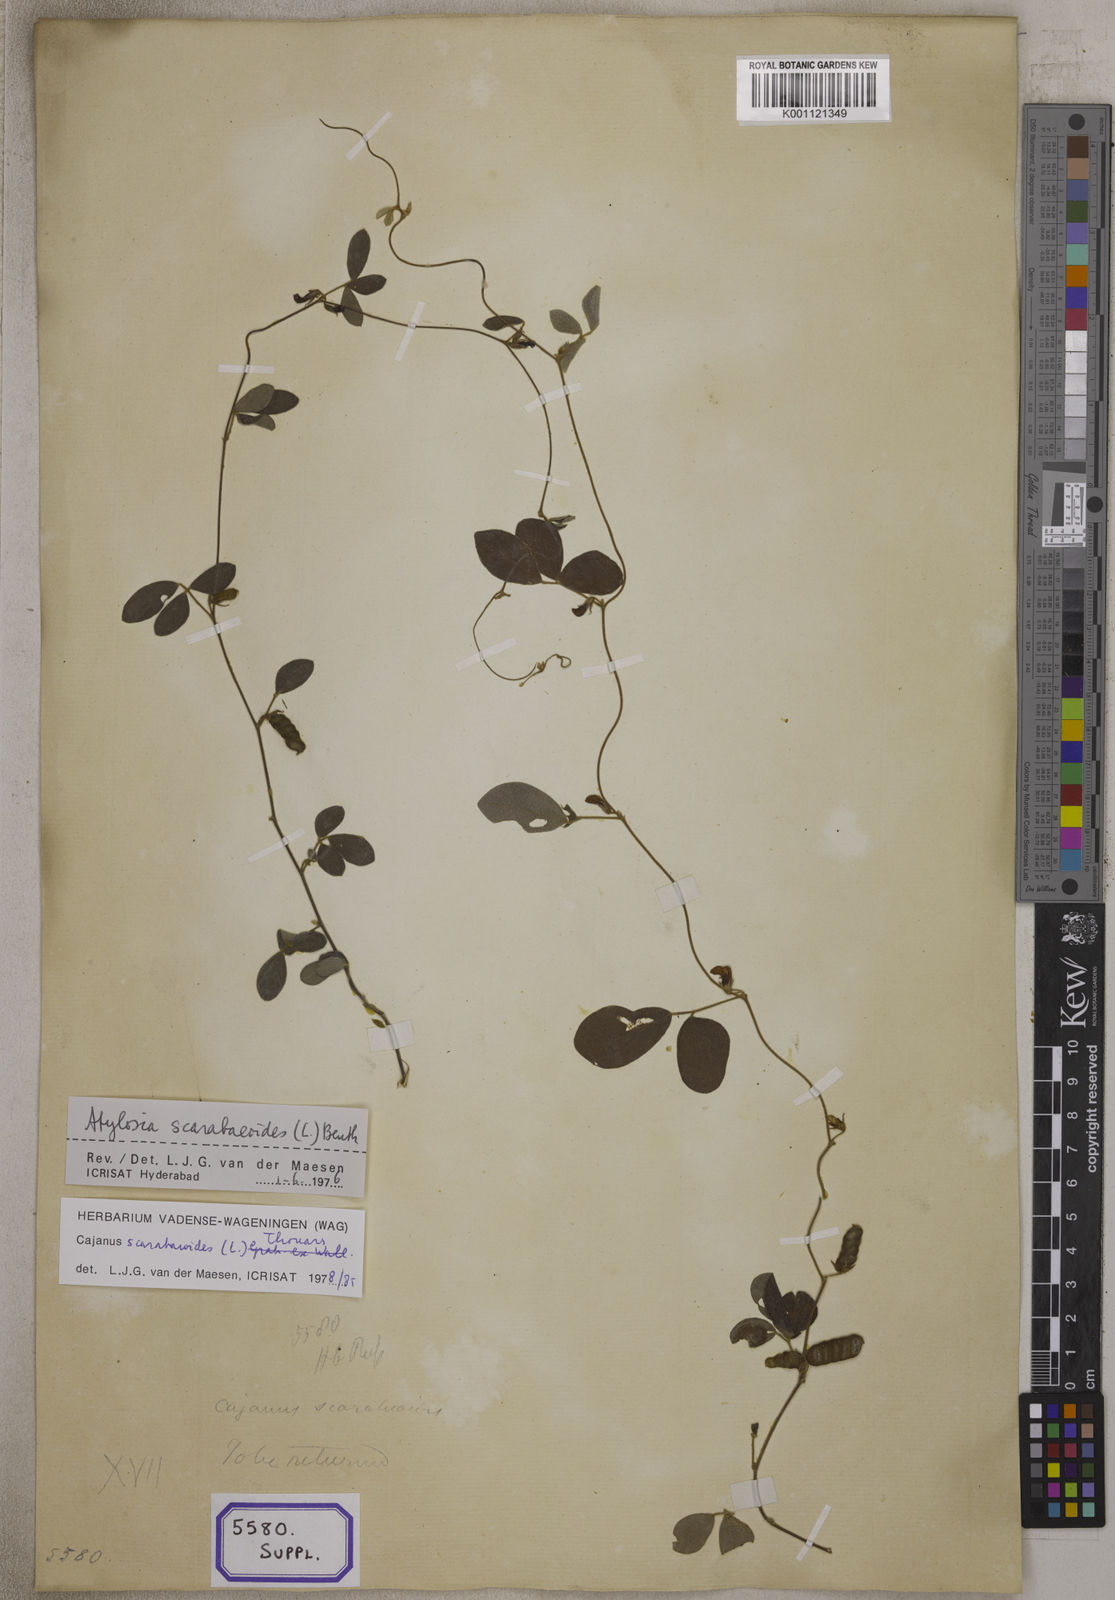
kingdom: Plantae
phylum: Tracheophyta
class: Magnoliopsida
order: Fabales
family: Fabaceae
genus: Cajanus
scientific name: Cajanus scarabaeoides
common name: Showy pigeonpea
